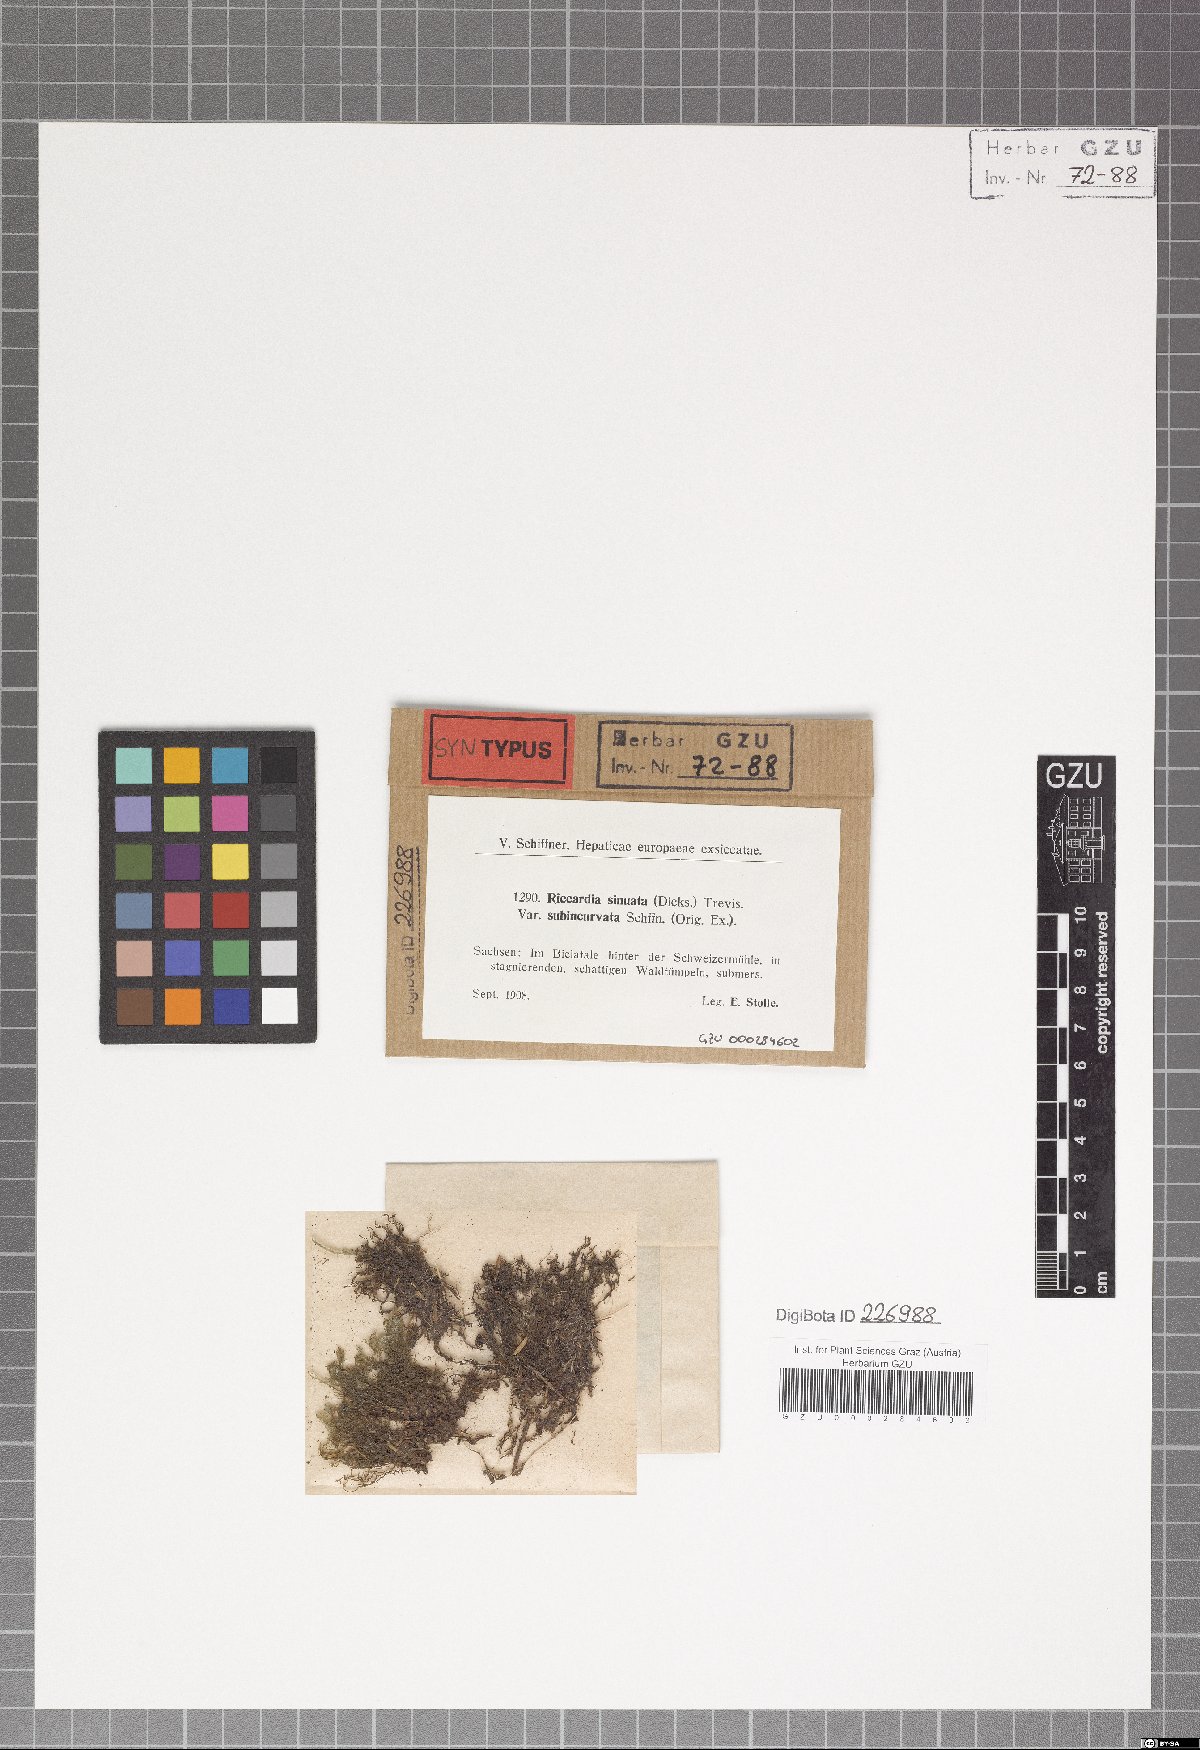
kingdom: Plantae
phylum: Marchantiophyta
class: Jungermanniopsida
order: Metzgeriales
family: Aneuraceae
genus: Riccardia
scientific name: Riccardia chamedryfolia
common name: Jagged germanderwort
